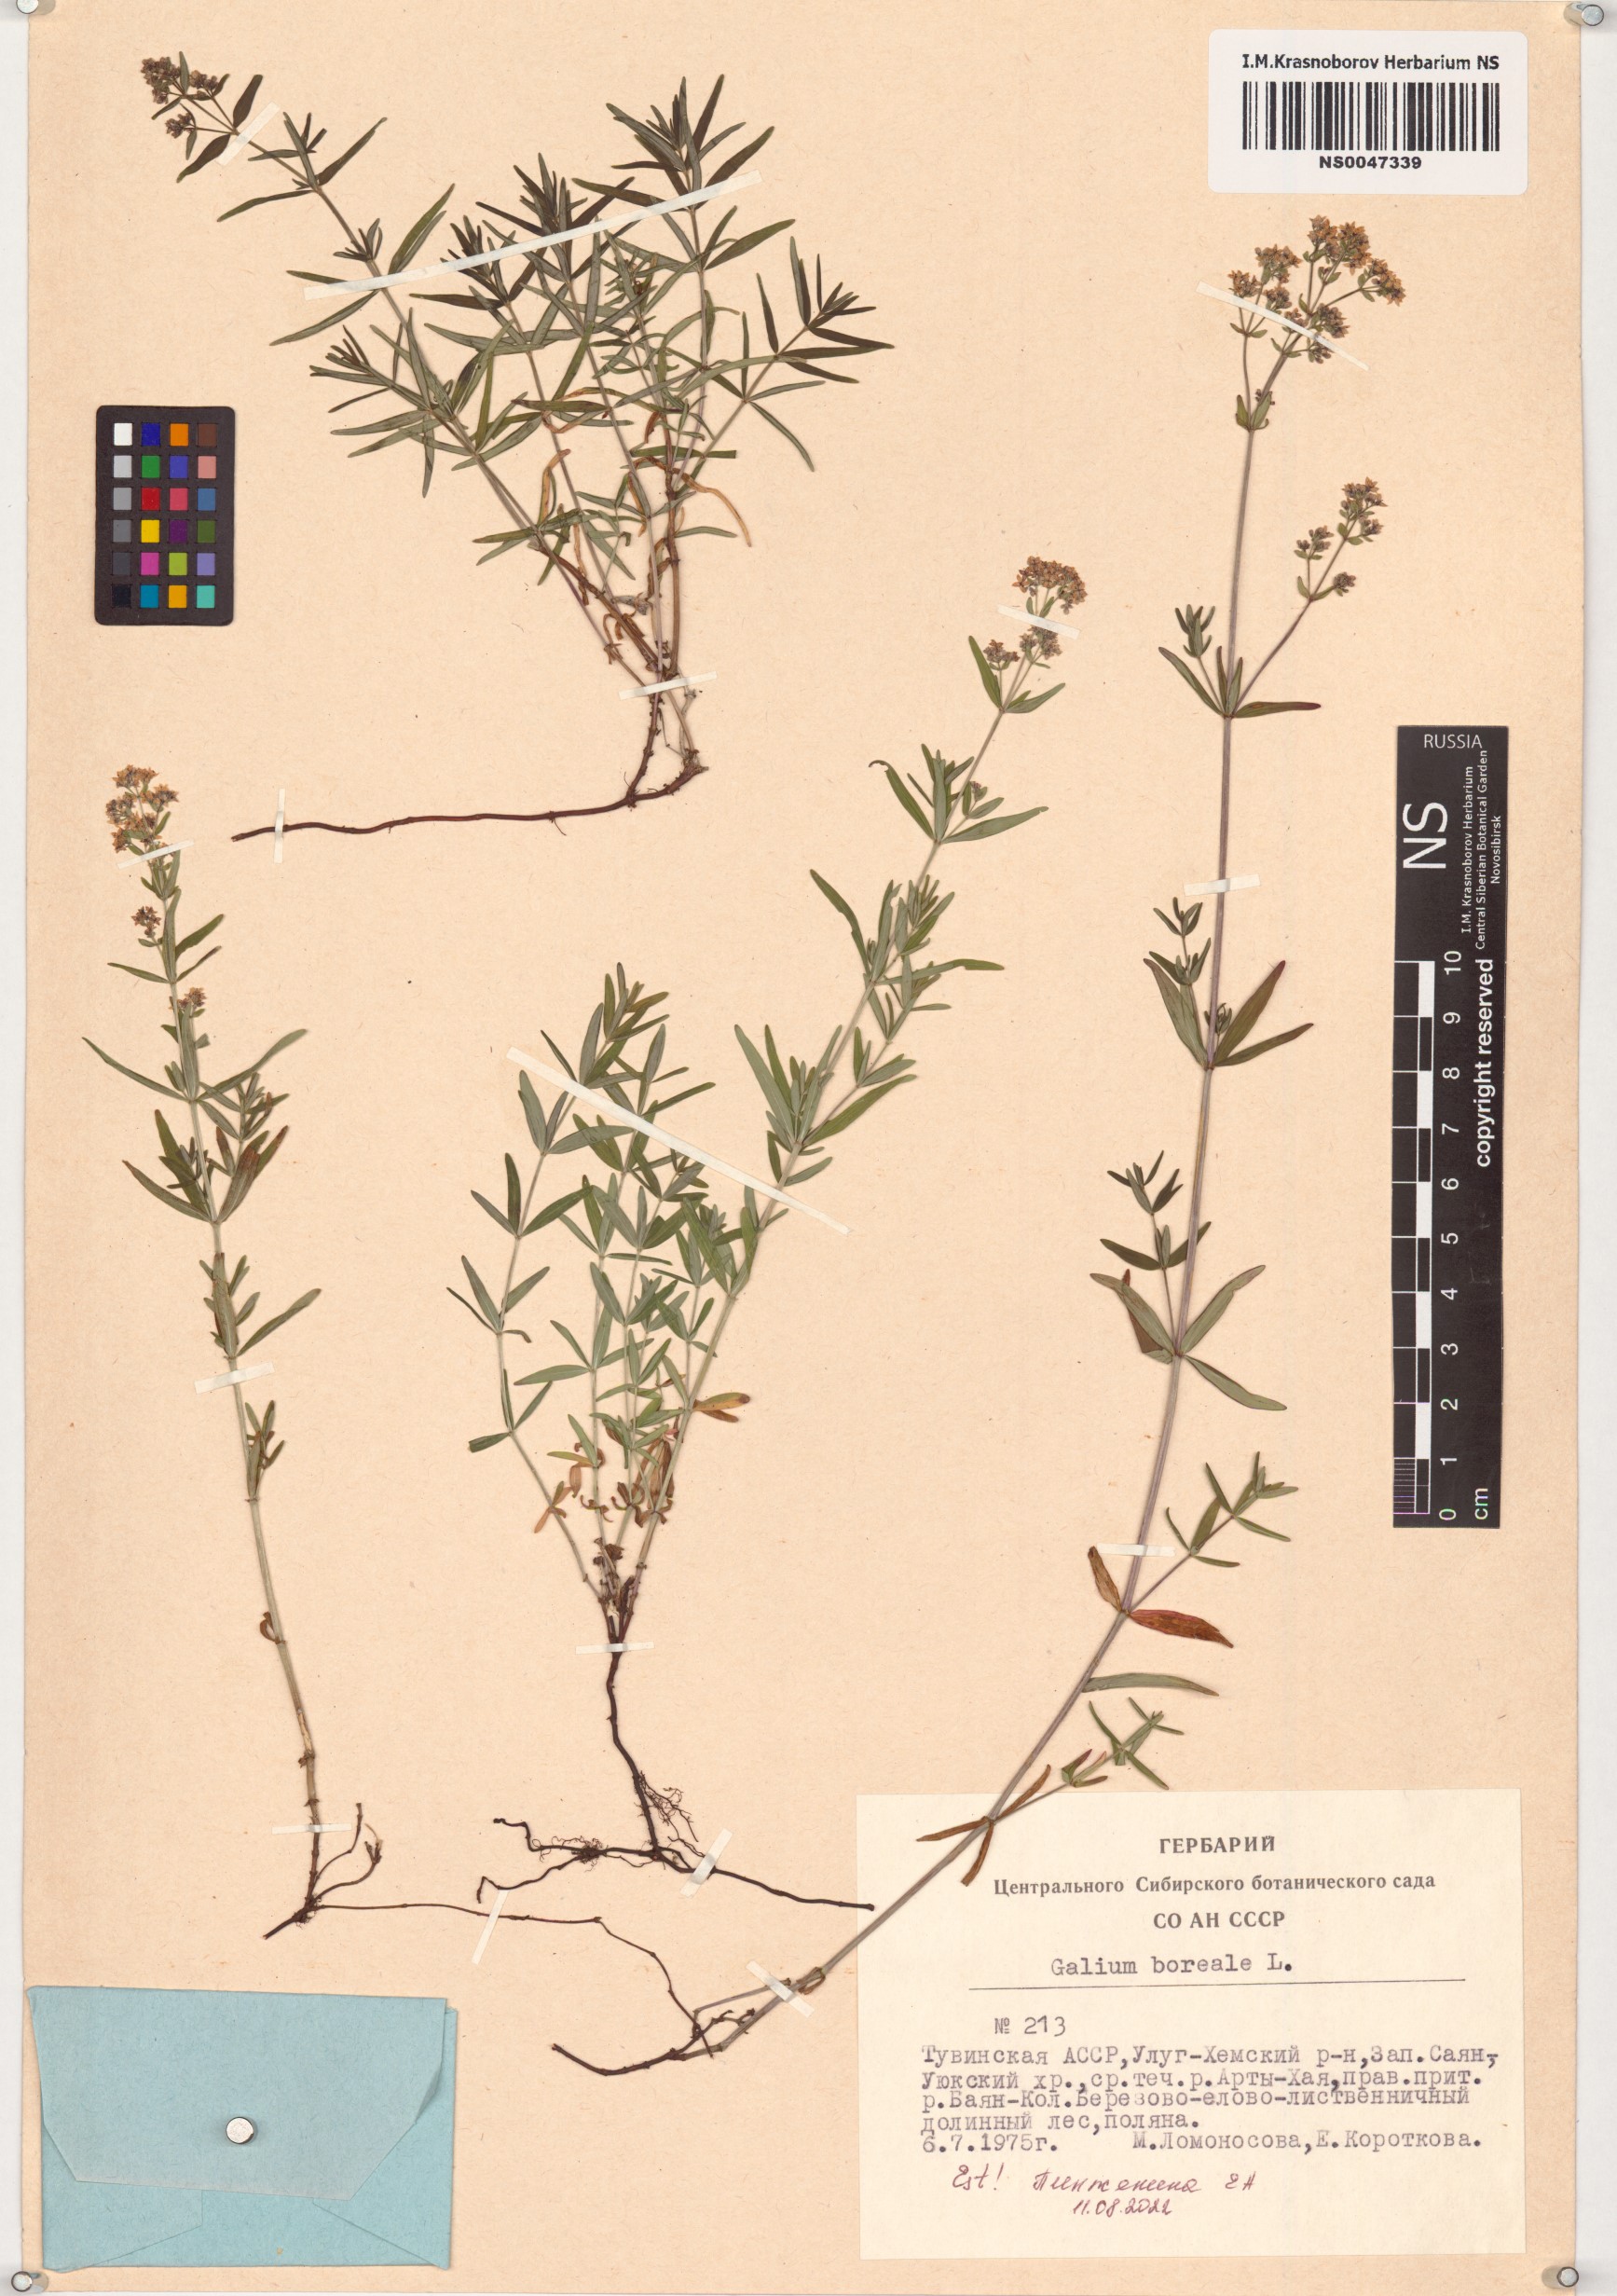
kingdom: Plantae
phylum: Tracheophyta
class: Magnoliopsida
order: Gentianales
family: Rubiaceae
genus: Galium
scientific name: Galium boreale
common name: Northern bedstraw
